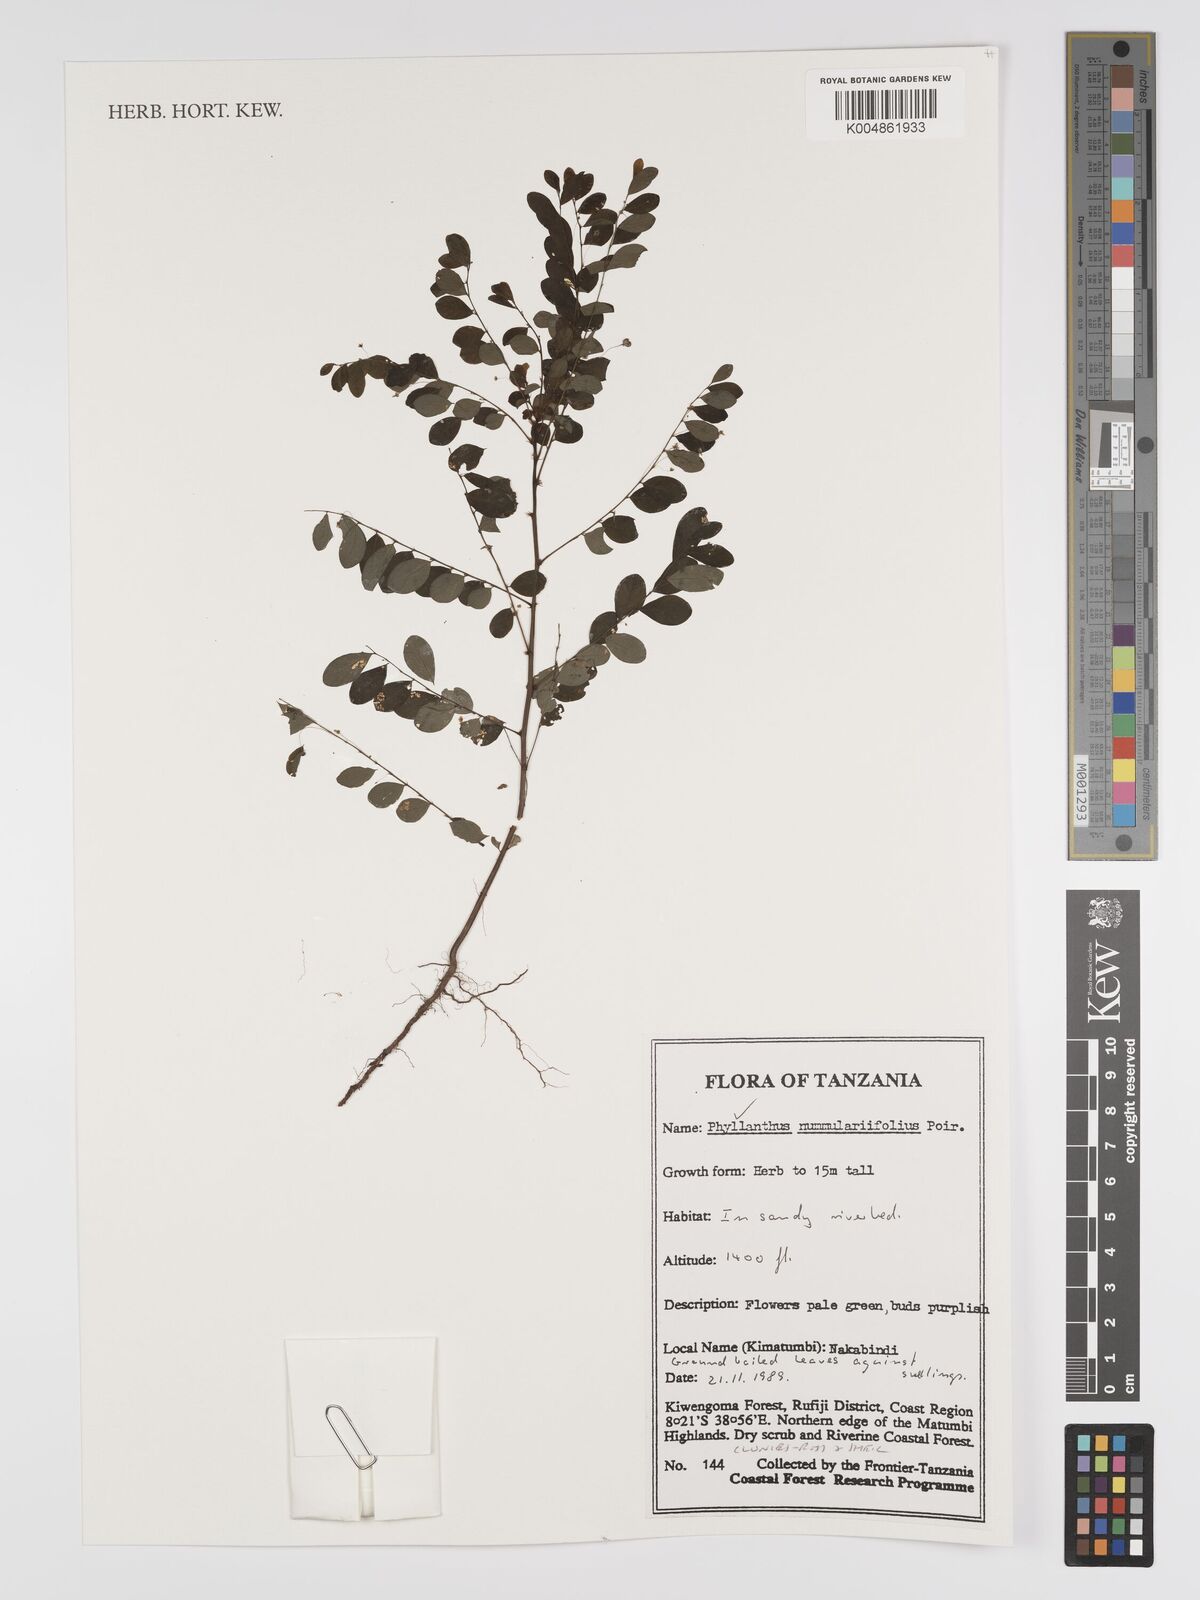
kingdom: Plantae
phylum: Tracheophyta
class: Magnoliopsida
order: Malpighiales
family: Phyllanthaceae
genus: Phyllanthus
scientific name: Phyllanthus nummulariifolius
